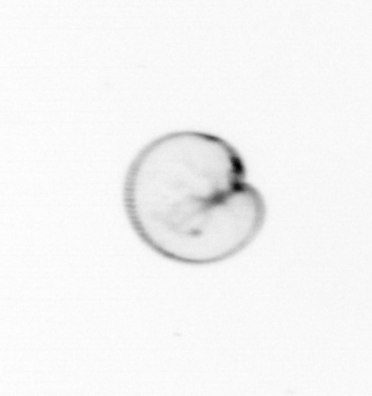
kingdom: Chromista
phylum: Myzozoa
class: Dinophyceae
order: Noctilucales
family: Noctilucaceae
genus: Noctiluca
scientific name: Noctiluca scintillans
